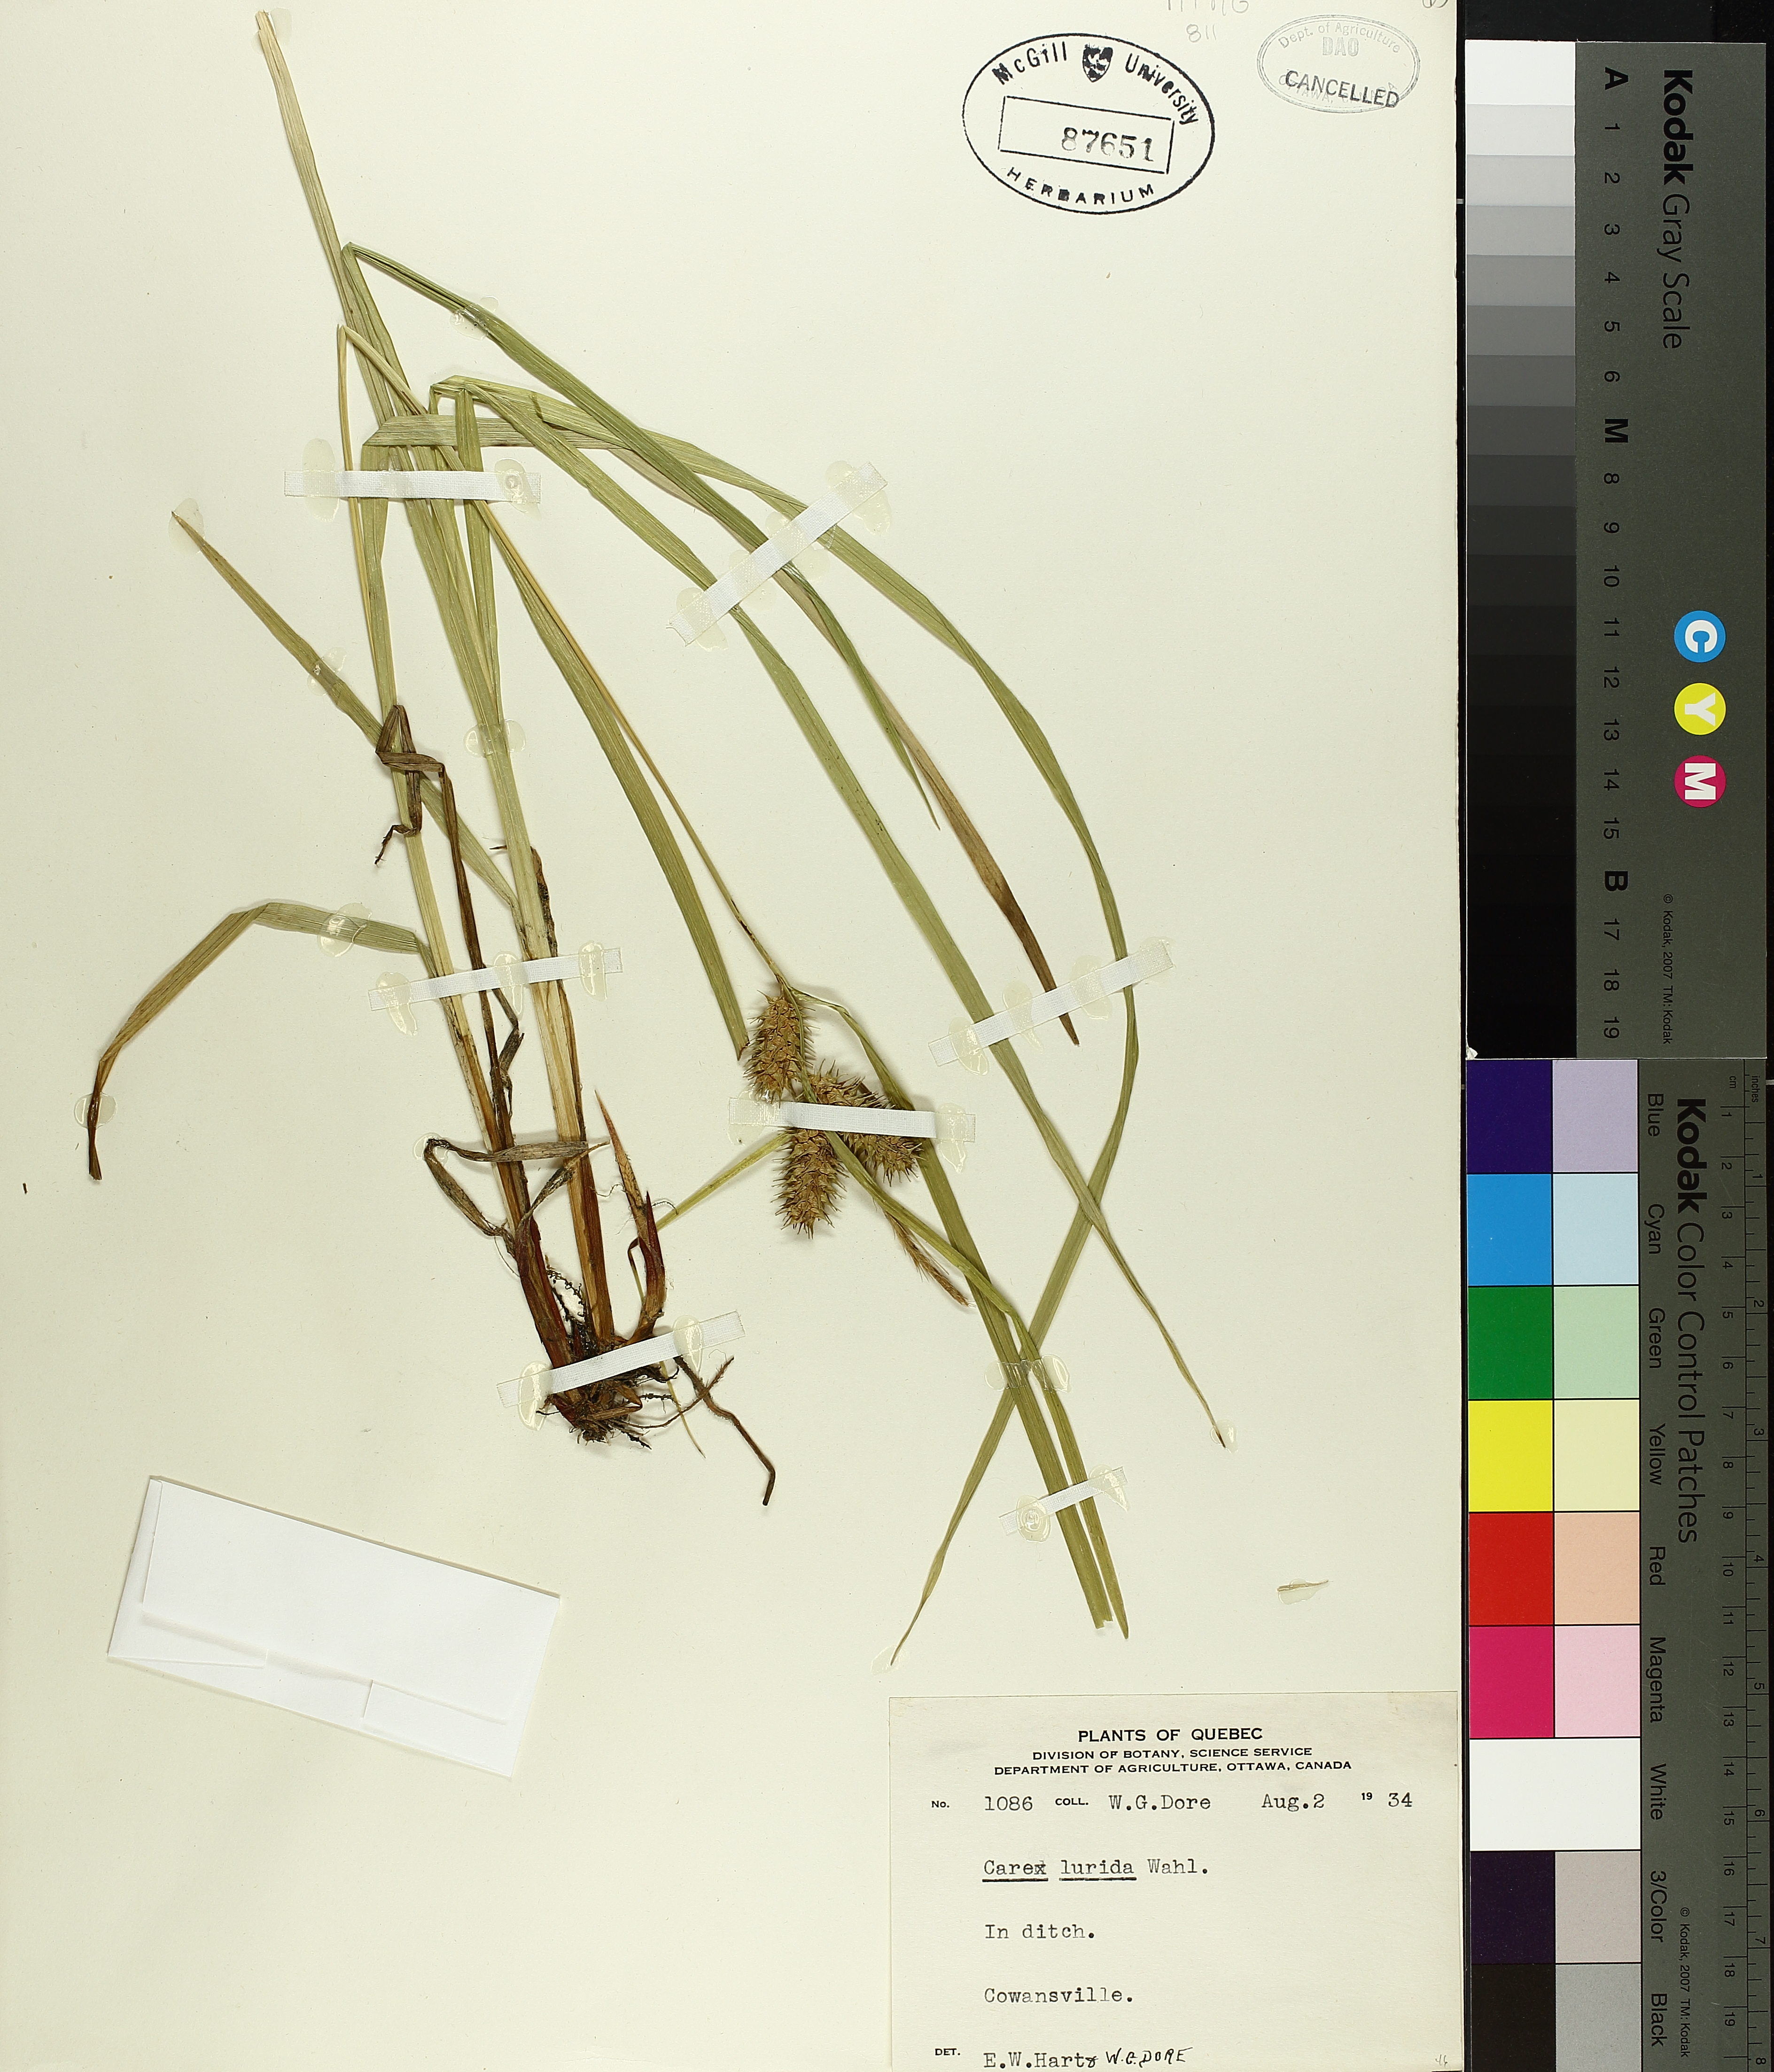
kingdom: Plantae
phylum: Tracheophyta
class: Liliopsida
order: Poales
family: Cyperaceae
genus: Carex
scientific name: Carex lurida
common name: Sallow sedge
